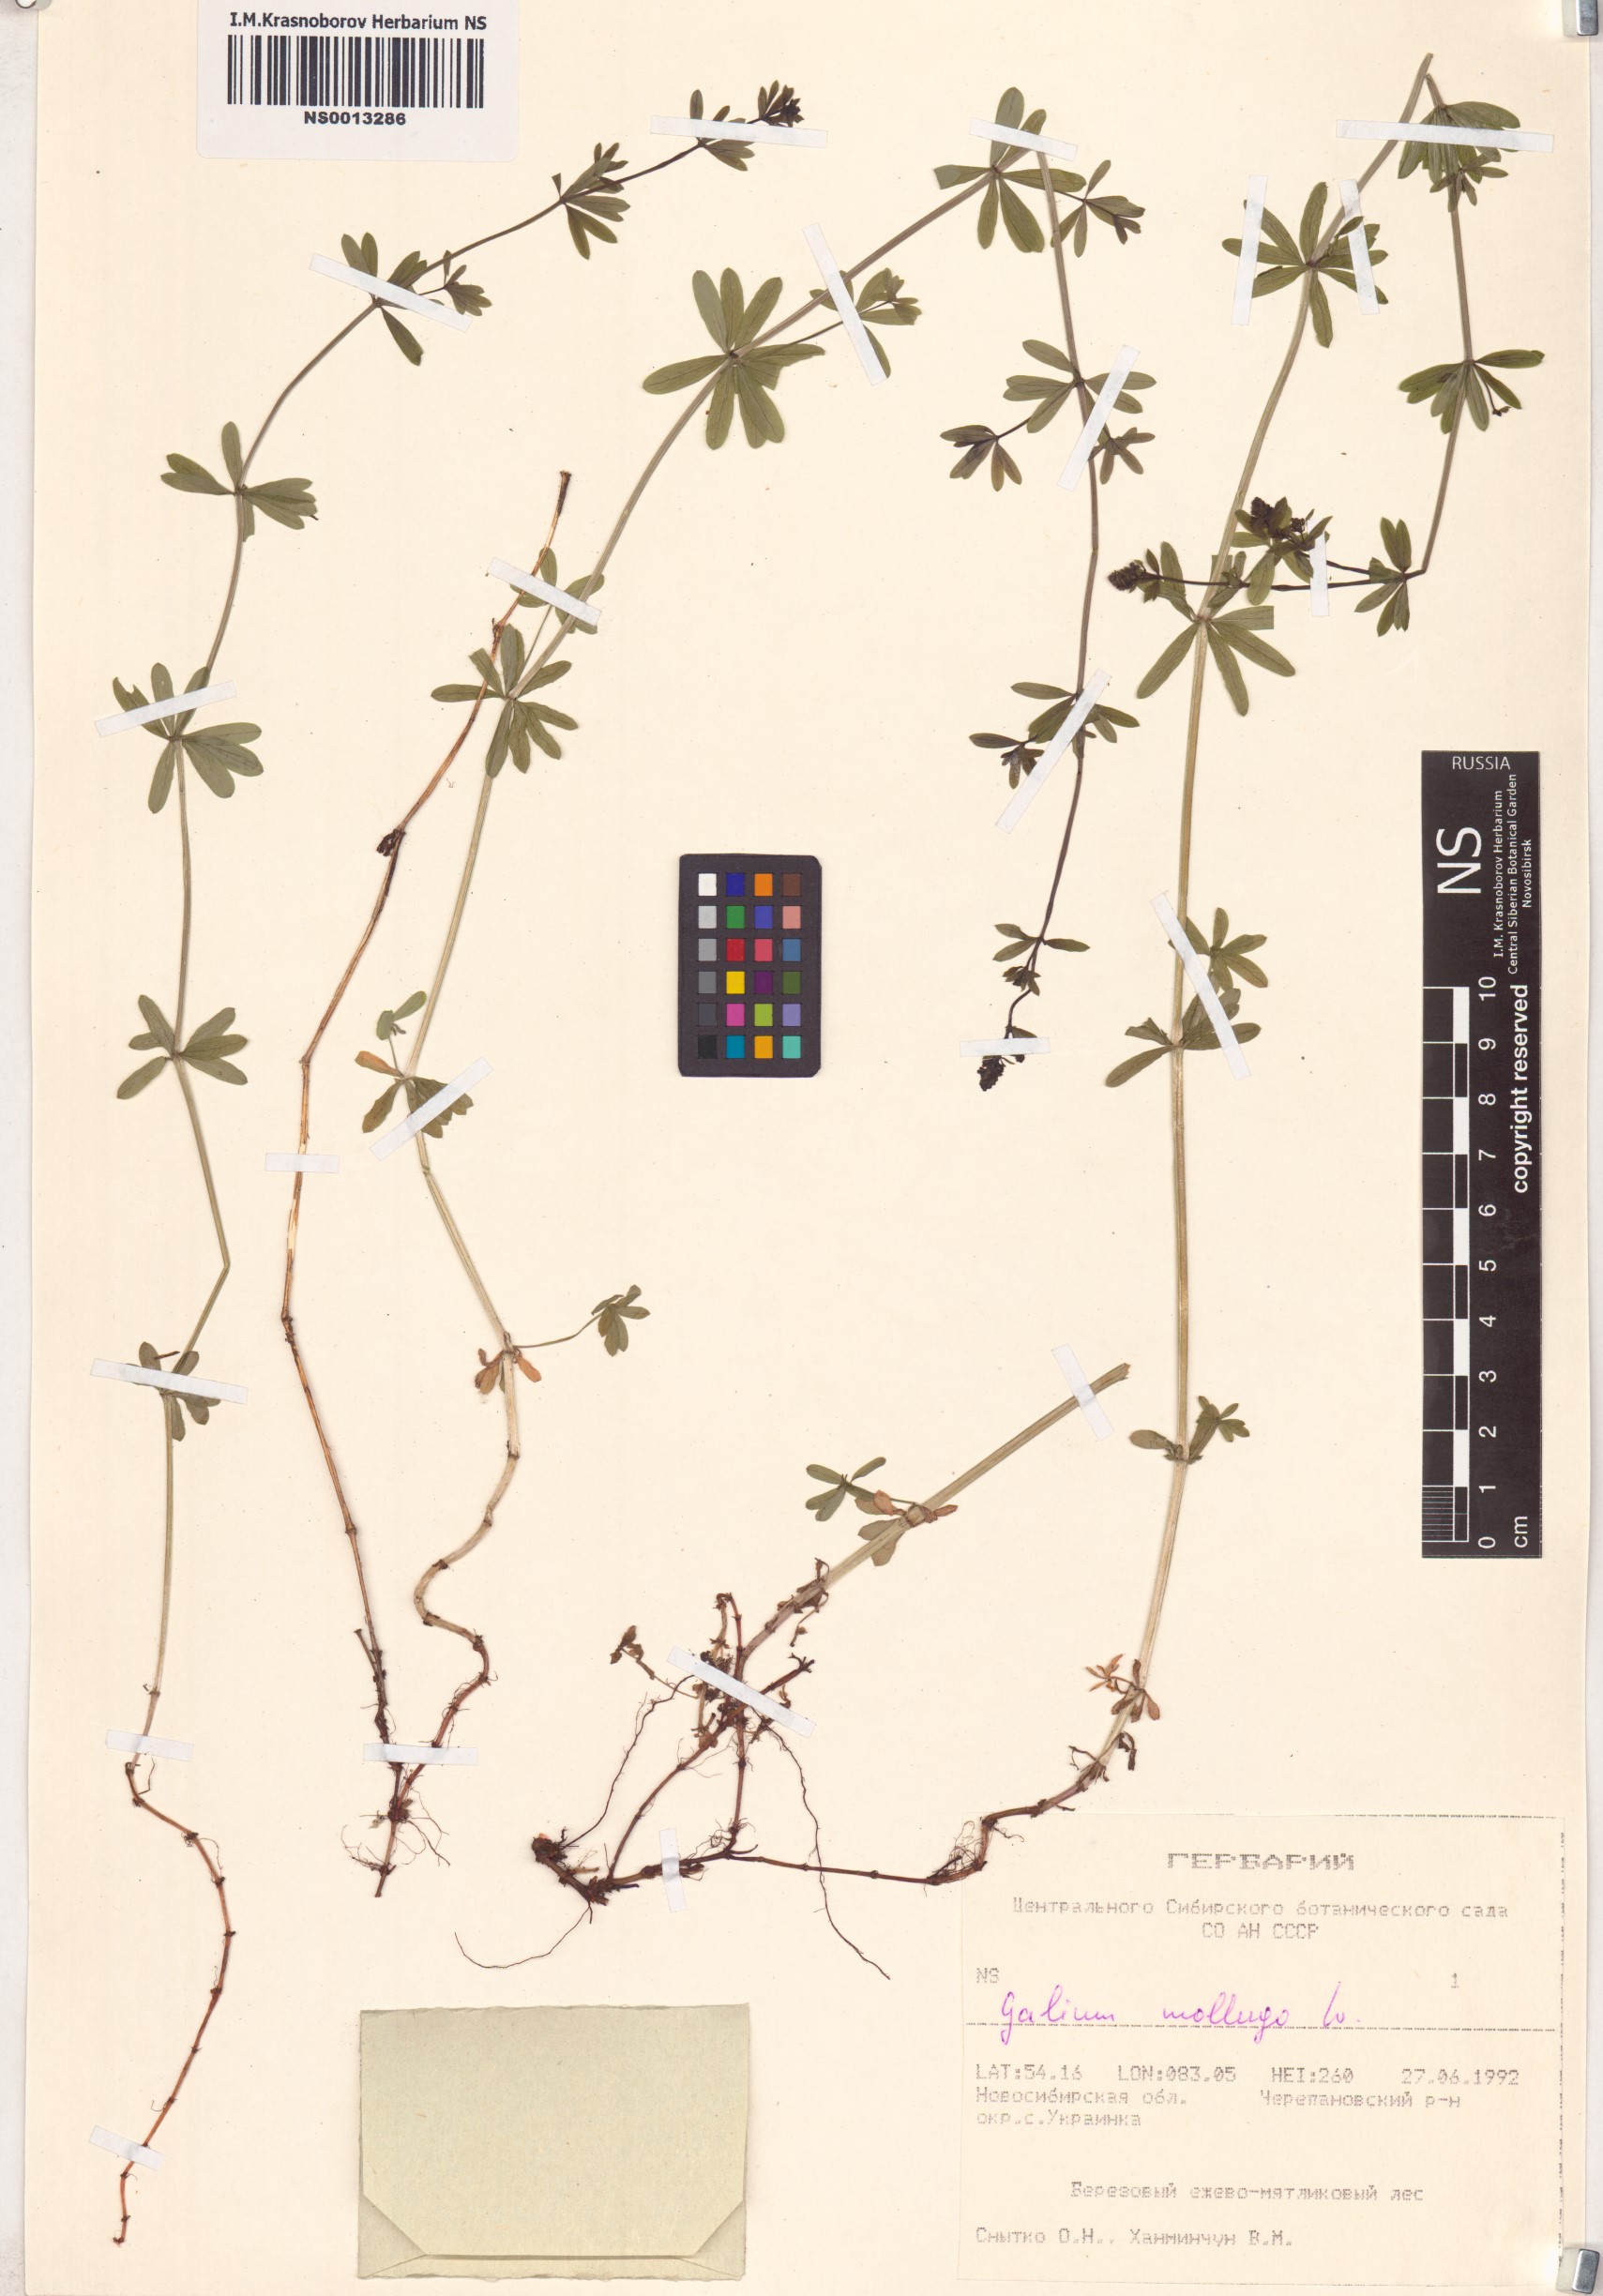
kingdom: Plantae
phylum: Tracheophyta
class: Magnoliopsida
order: Gentianales
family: Rubiaceae
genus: Galium
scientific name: Galium mollugo
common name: Hedge bedstraw
